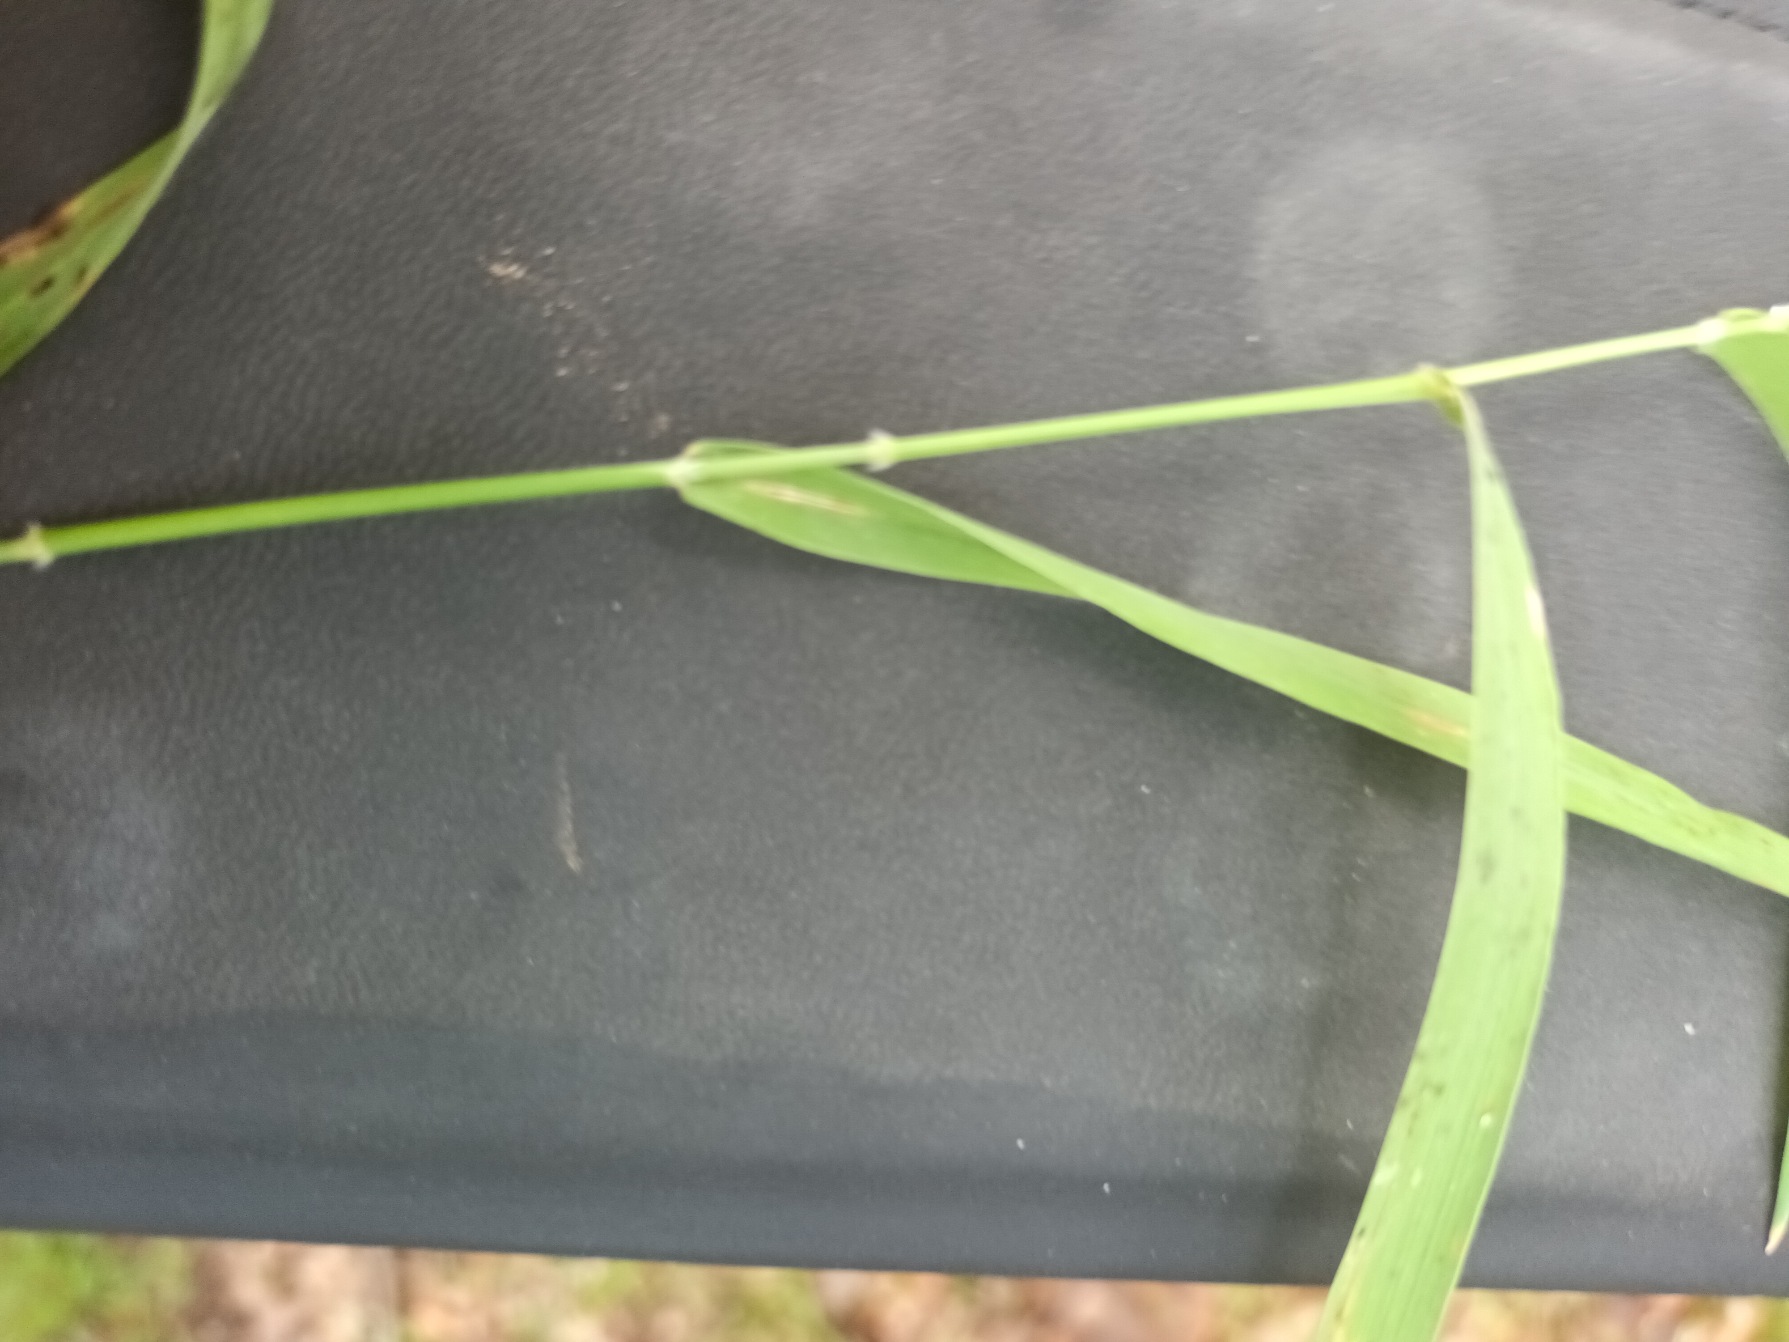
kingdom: Plantae
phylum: Tracheophyta
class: Liliopsida
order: Poales
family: Poaceae
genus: Holcus
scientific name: Holcus mollis
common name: Krybende hestegræs
